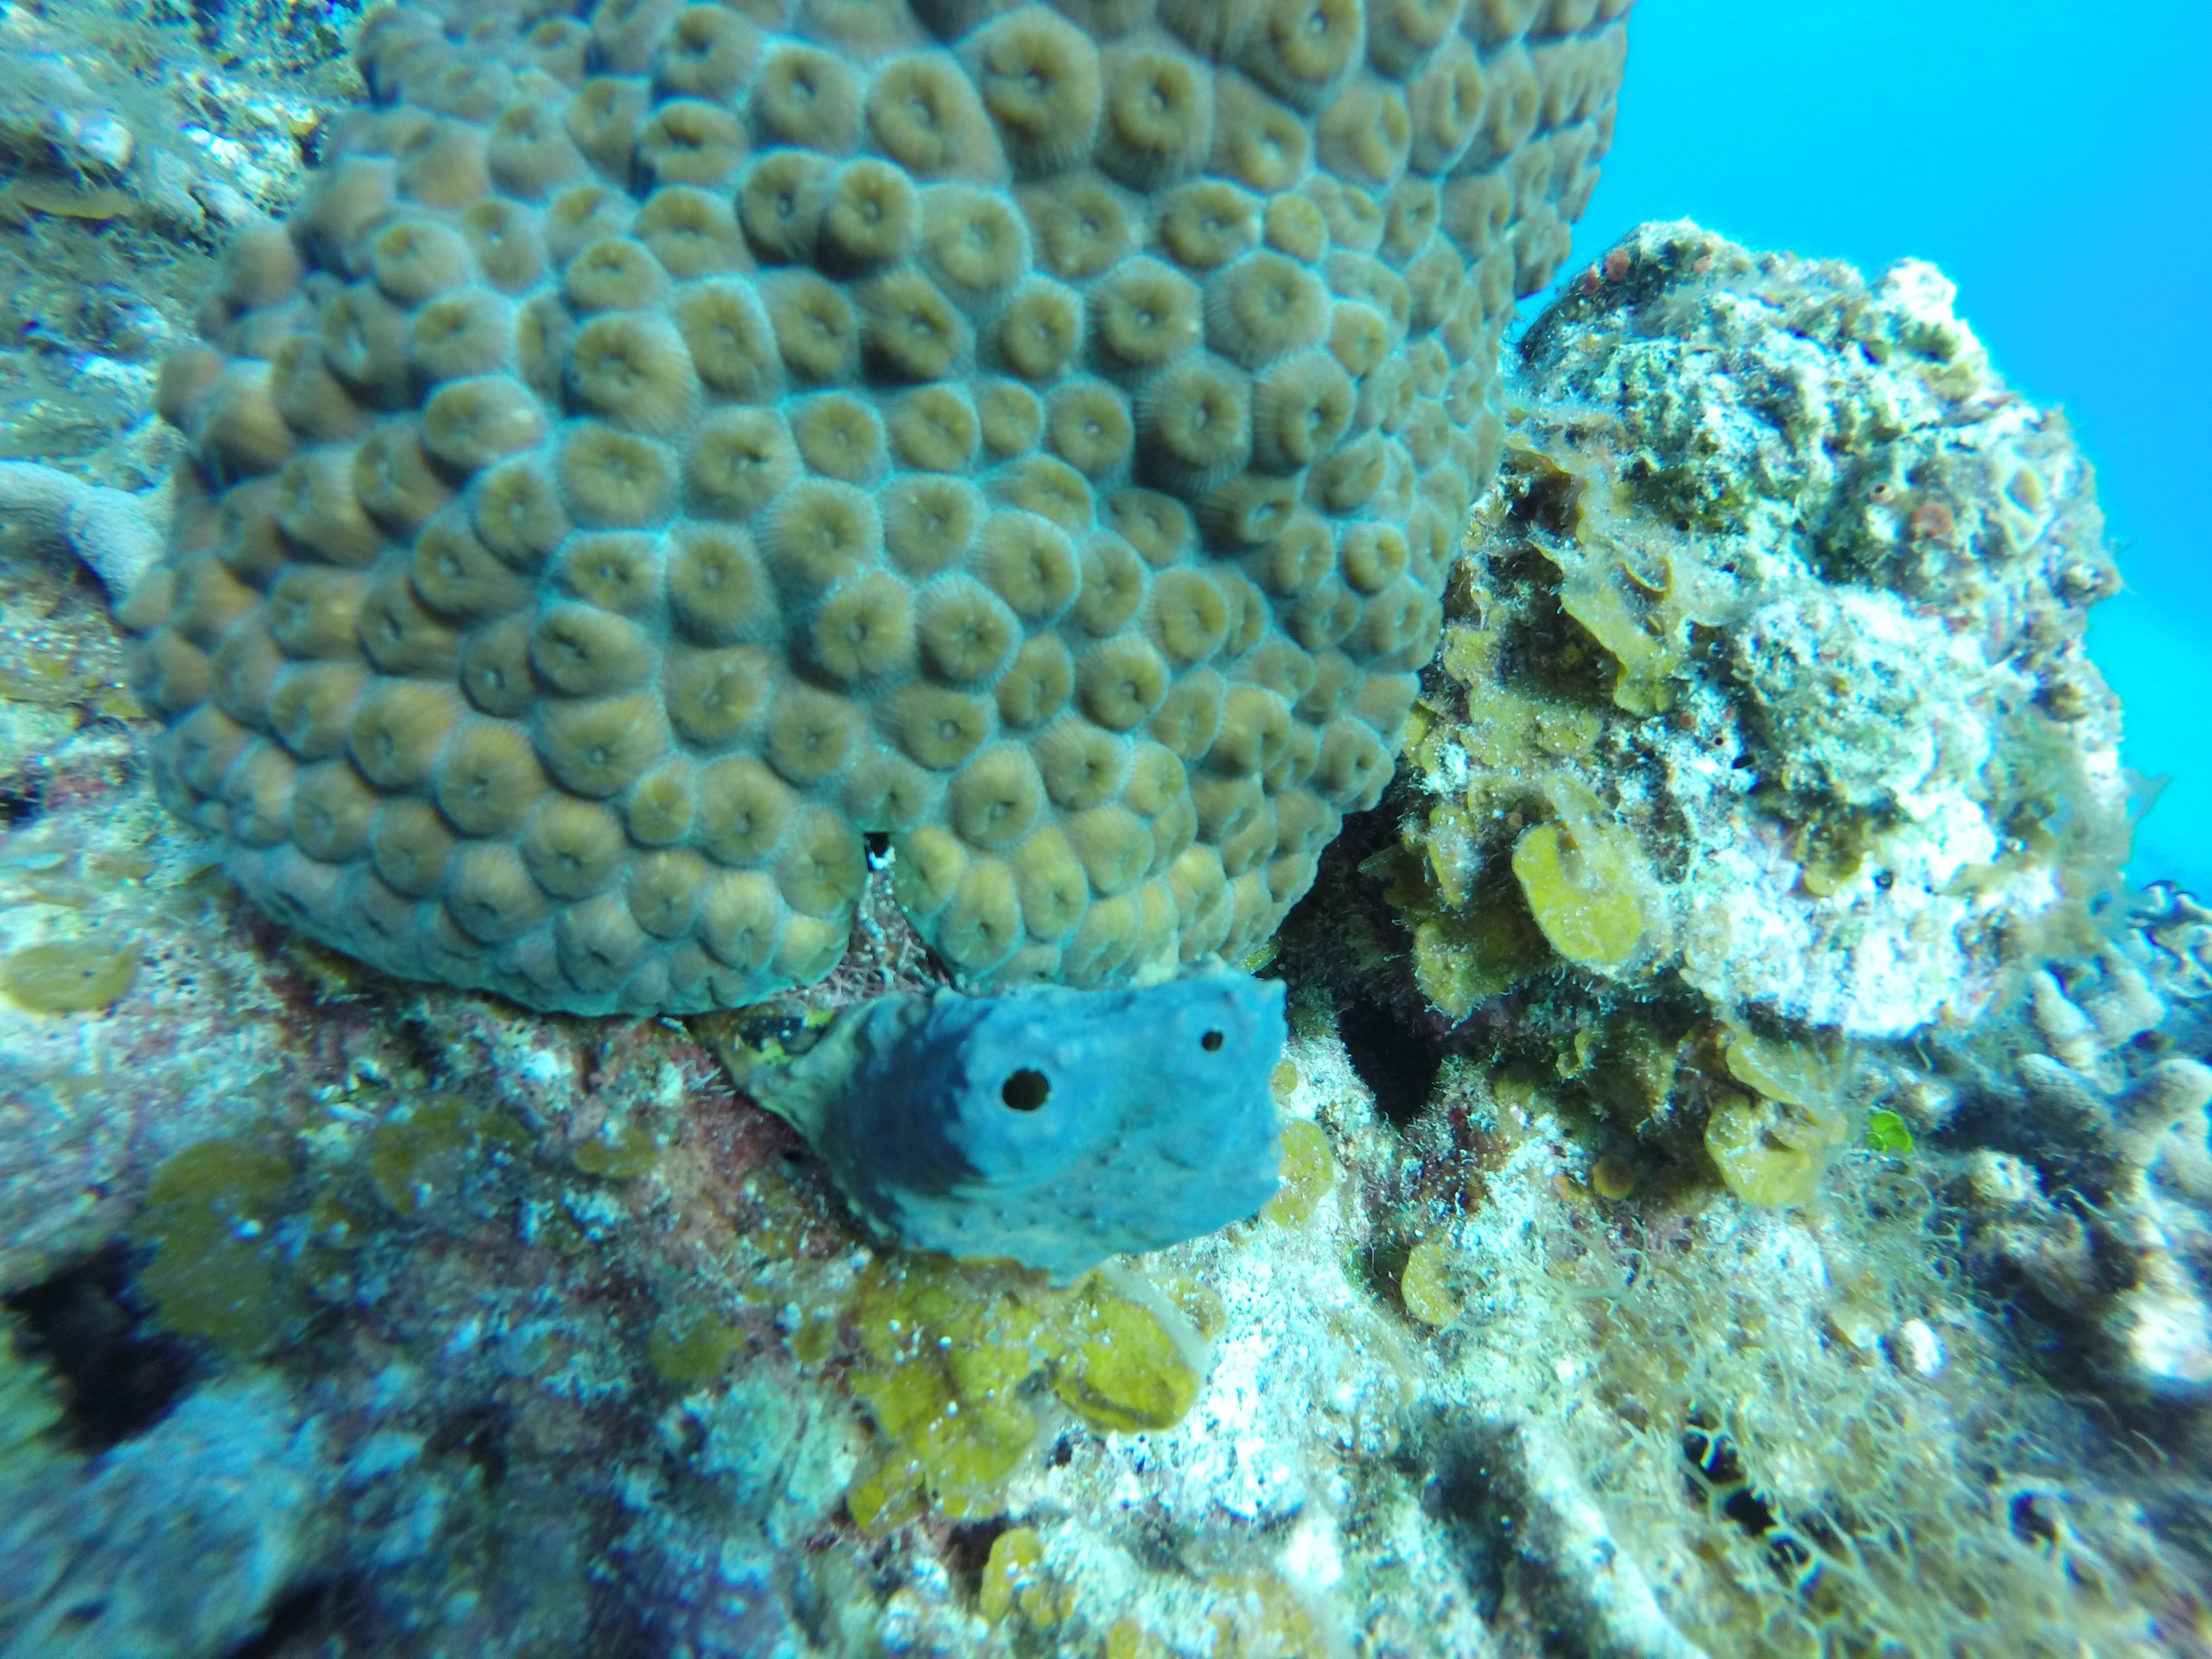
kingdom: Animalia
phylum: Porifera
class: Demospongiae
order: Verongiida
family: Aplysinidae
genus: Aiolochroia
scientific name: Aiolochroia crassa
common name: Branching tube sponge
